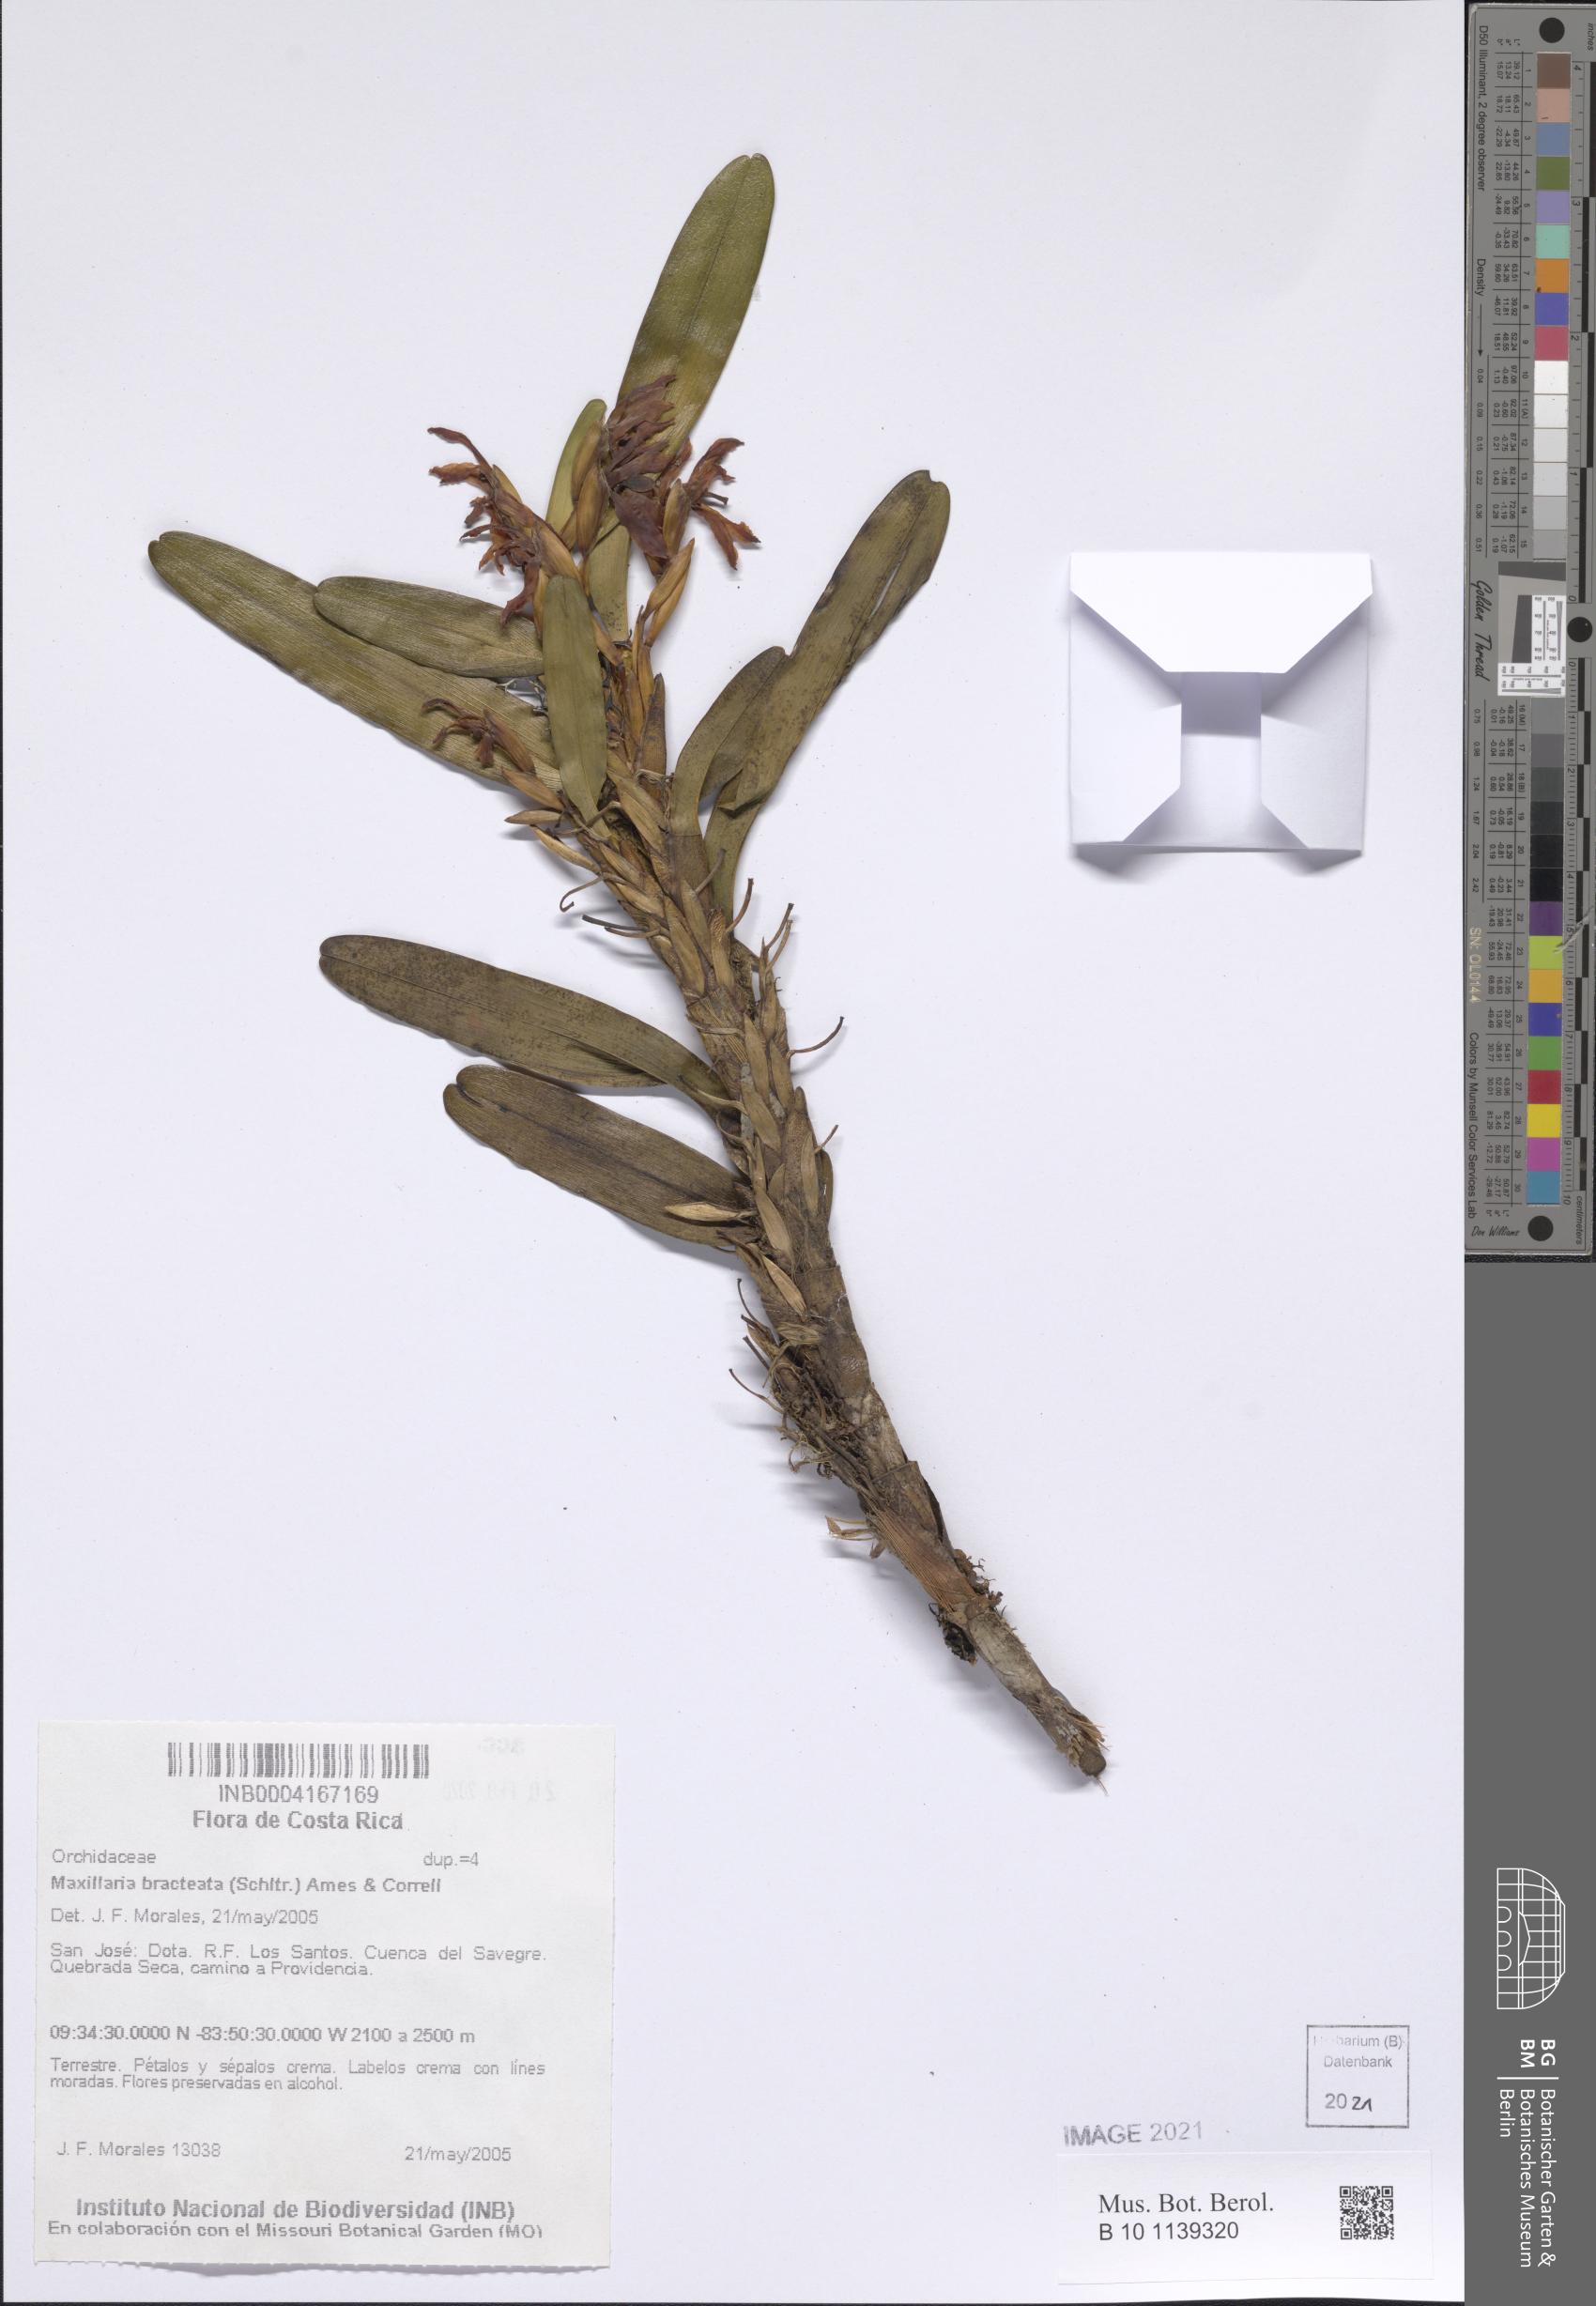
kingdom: Plantae
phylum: Tracheophyta
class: Liliopsida
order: Asparagales
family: Orchidaceae
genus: Maxillaria
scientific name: Maxillaria bracteata
